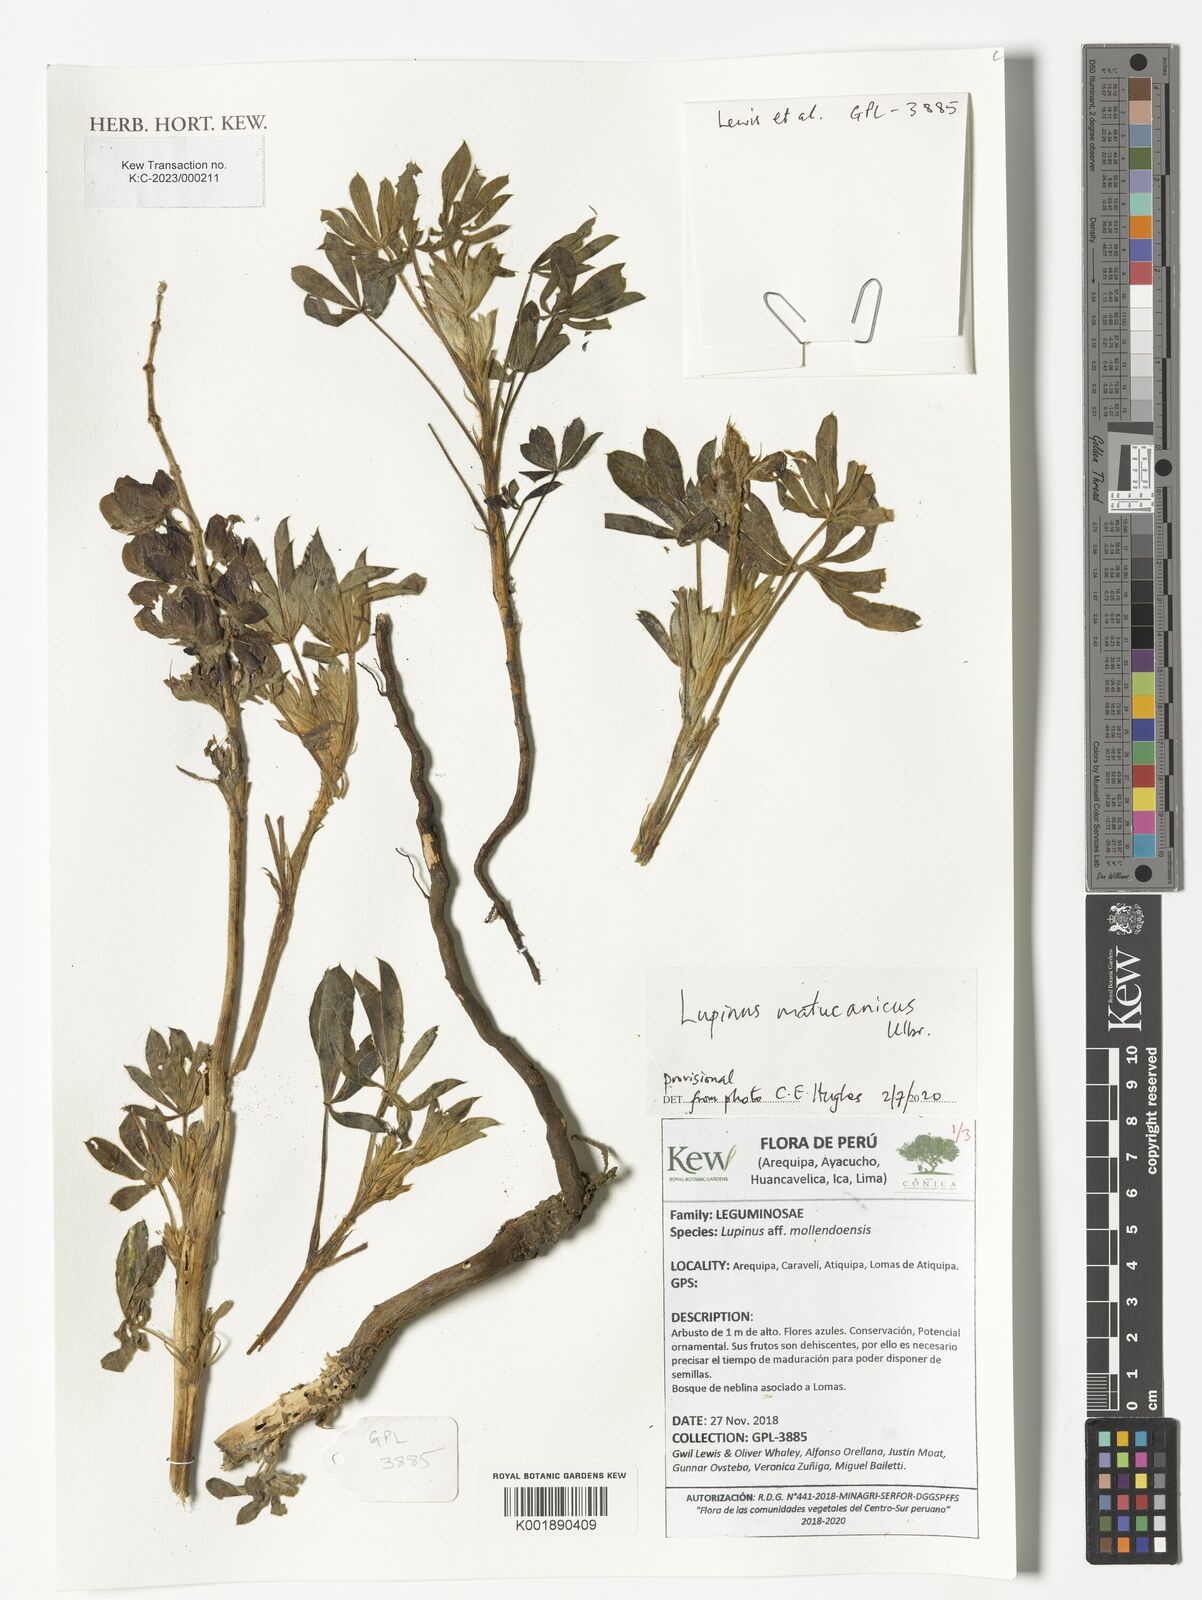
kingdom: Plantae
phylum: Tracheophyta
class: Magnoliopsida
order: Fabales
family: Fabaceae
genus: Lupinus
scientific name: Lupinus matucanicus
